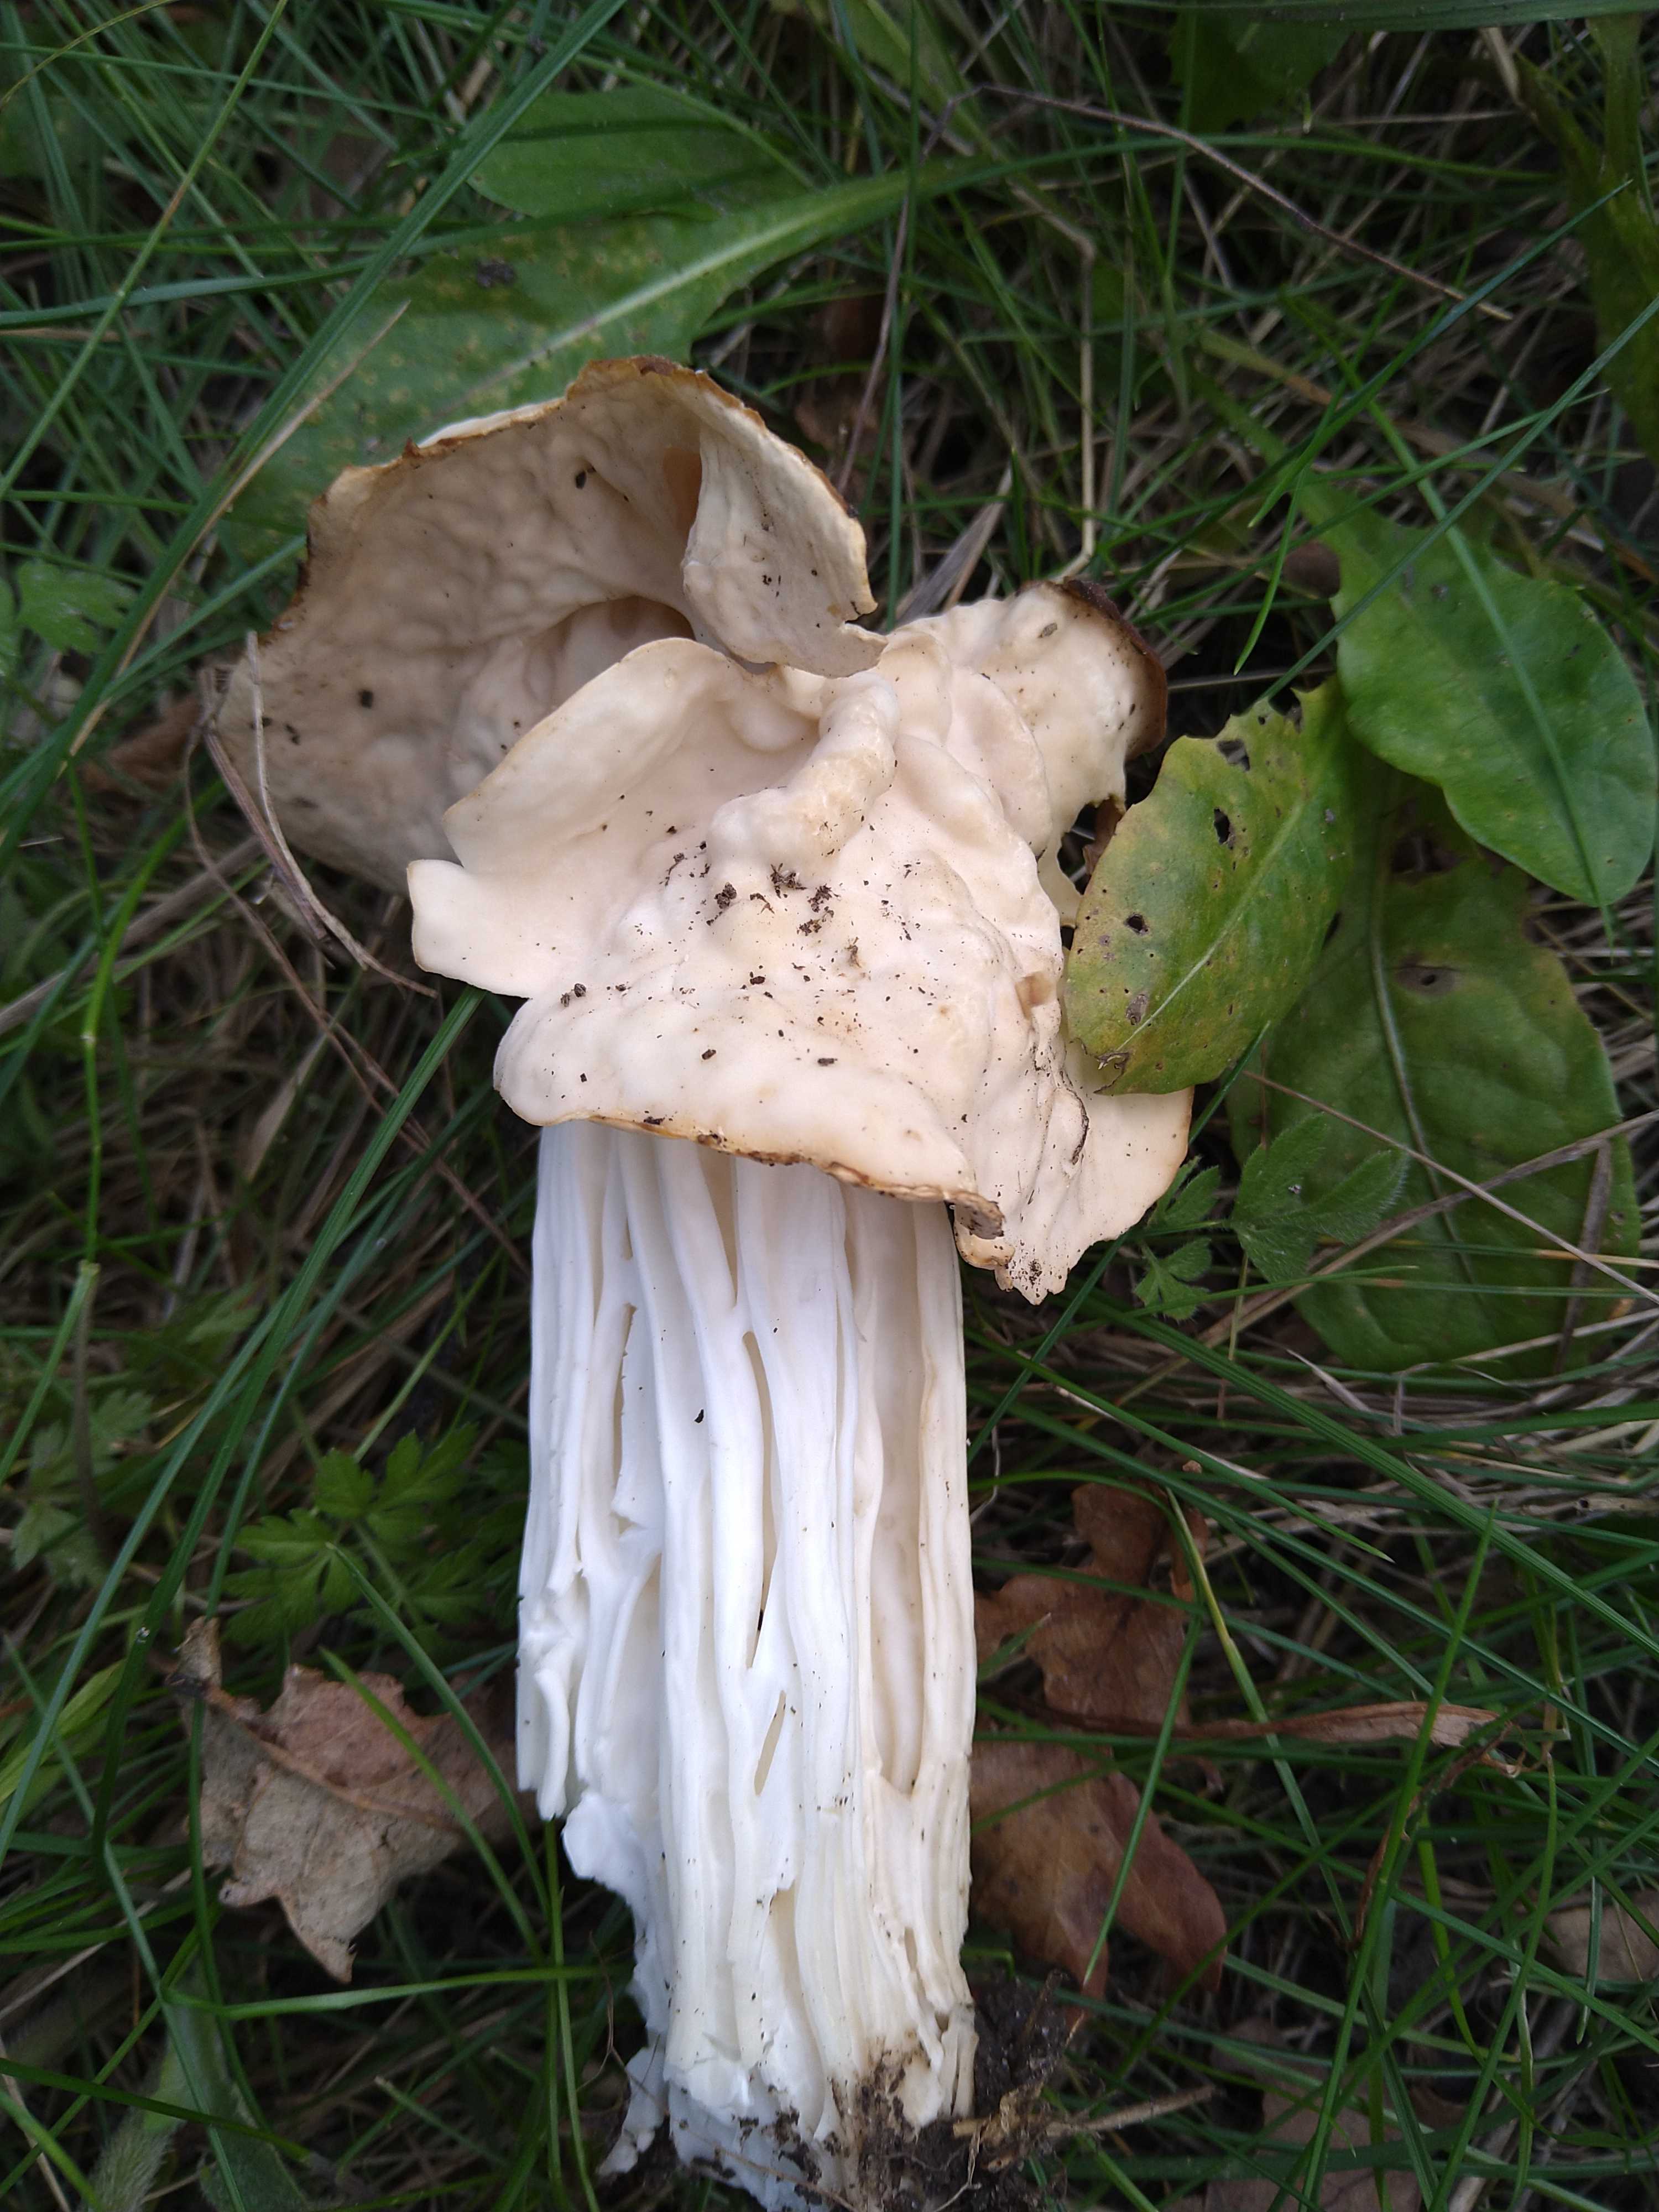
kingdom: Fungi
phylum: Ascomycota
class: Pezizomycetes
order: Pezizales
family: Helvellaceae
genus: Helvella
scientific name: Helvella crispa
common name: kruset foldhat
